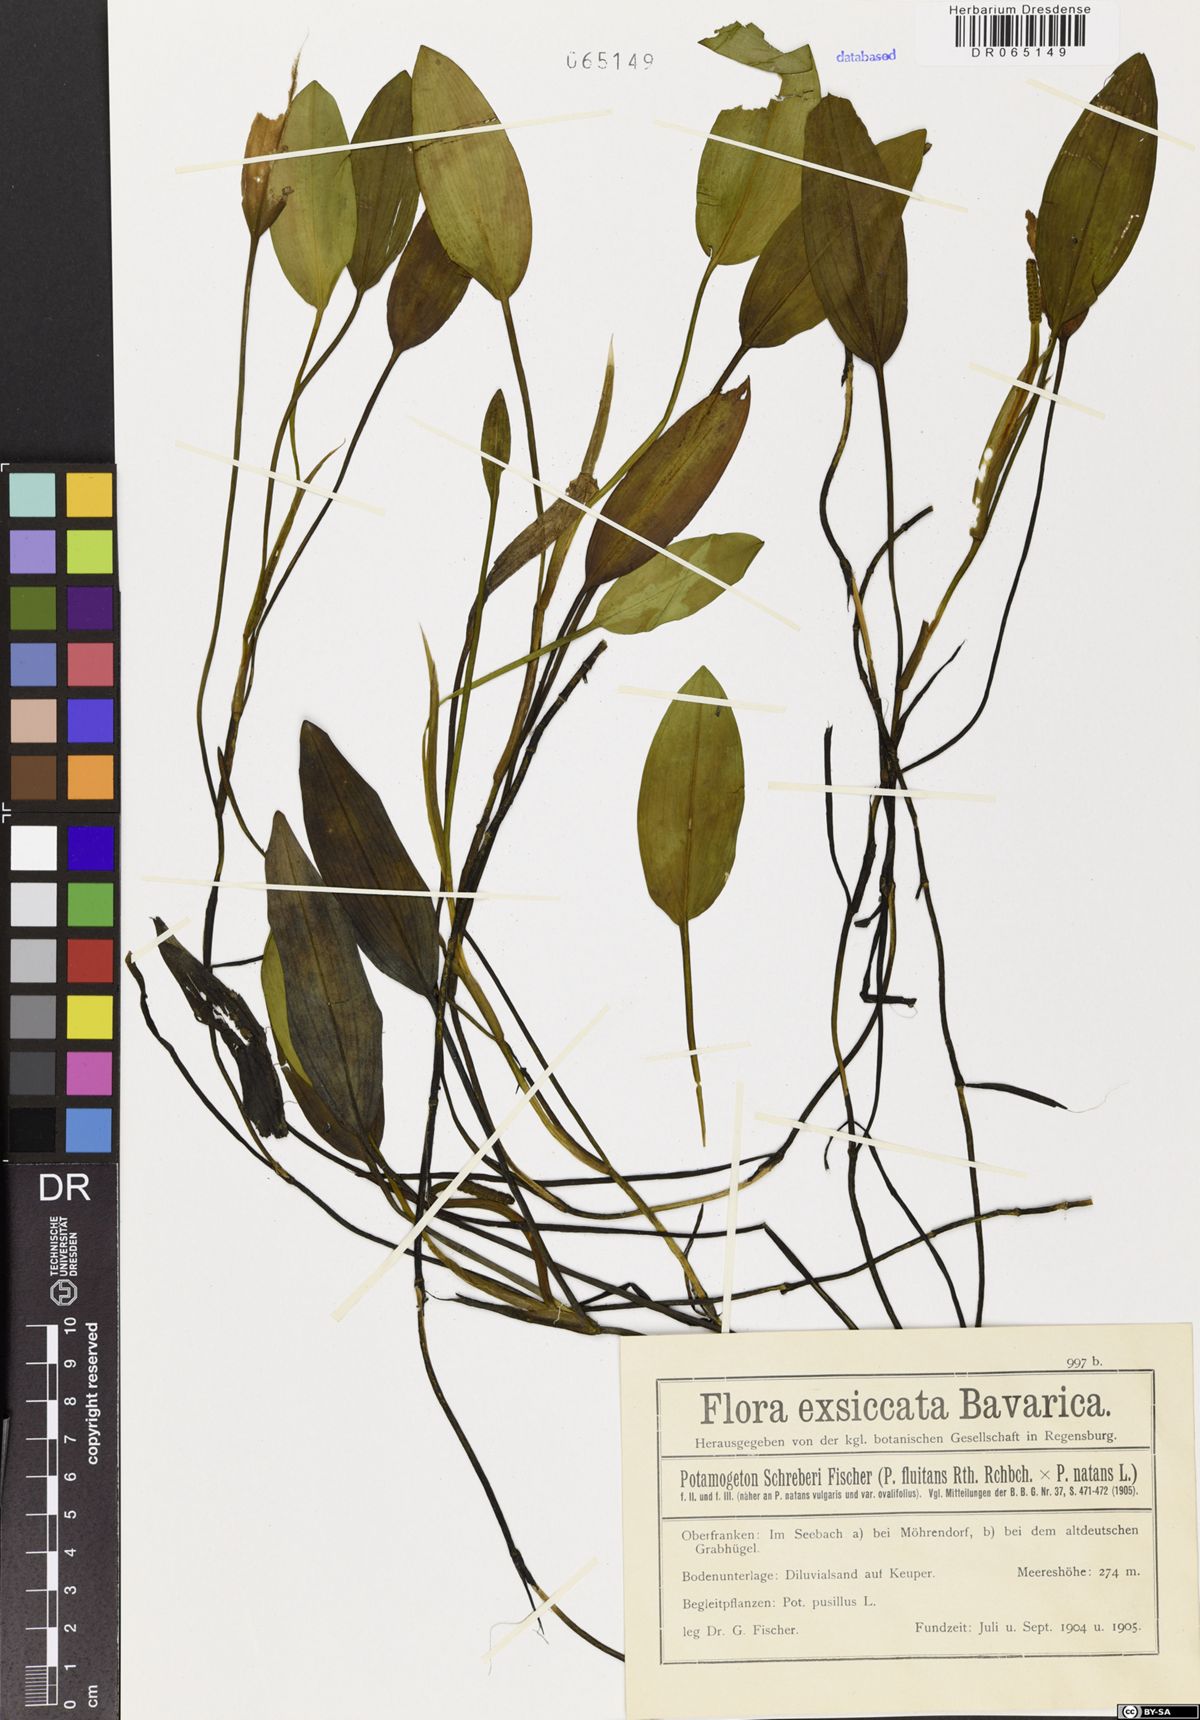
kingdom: Plantae
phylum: Tracheophyta
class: Liliopsida
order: Alismatales
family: Potamogetonaceae
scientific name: Potamogetonaceae
